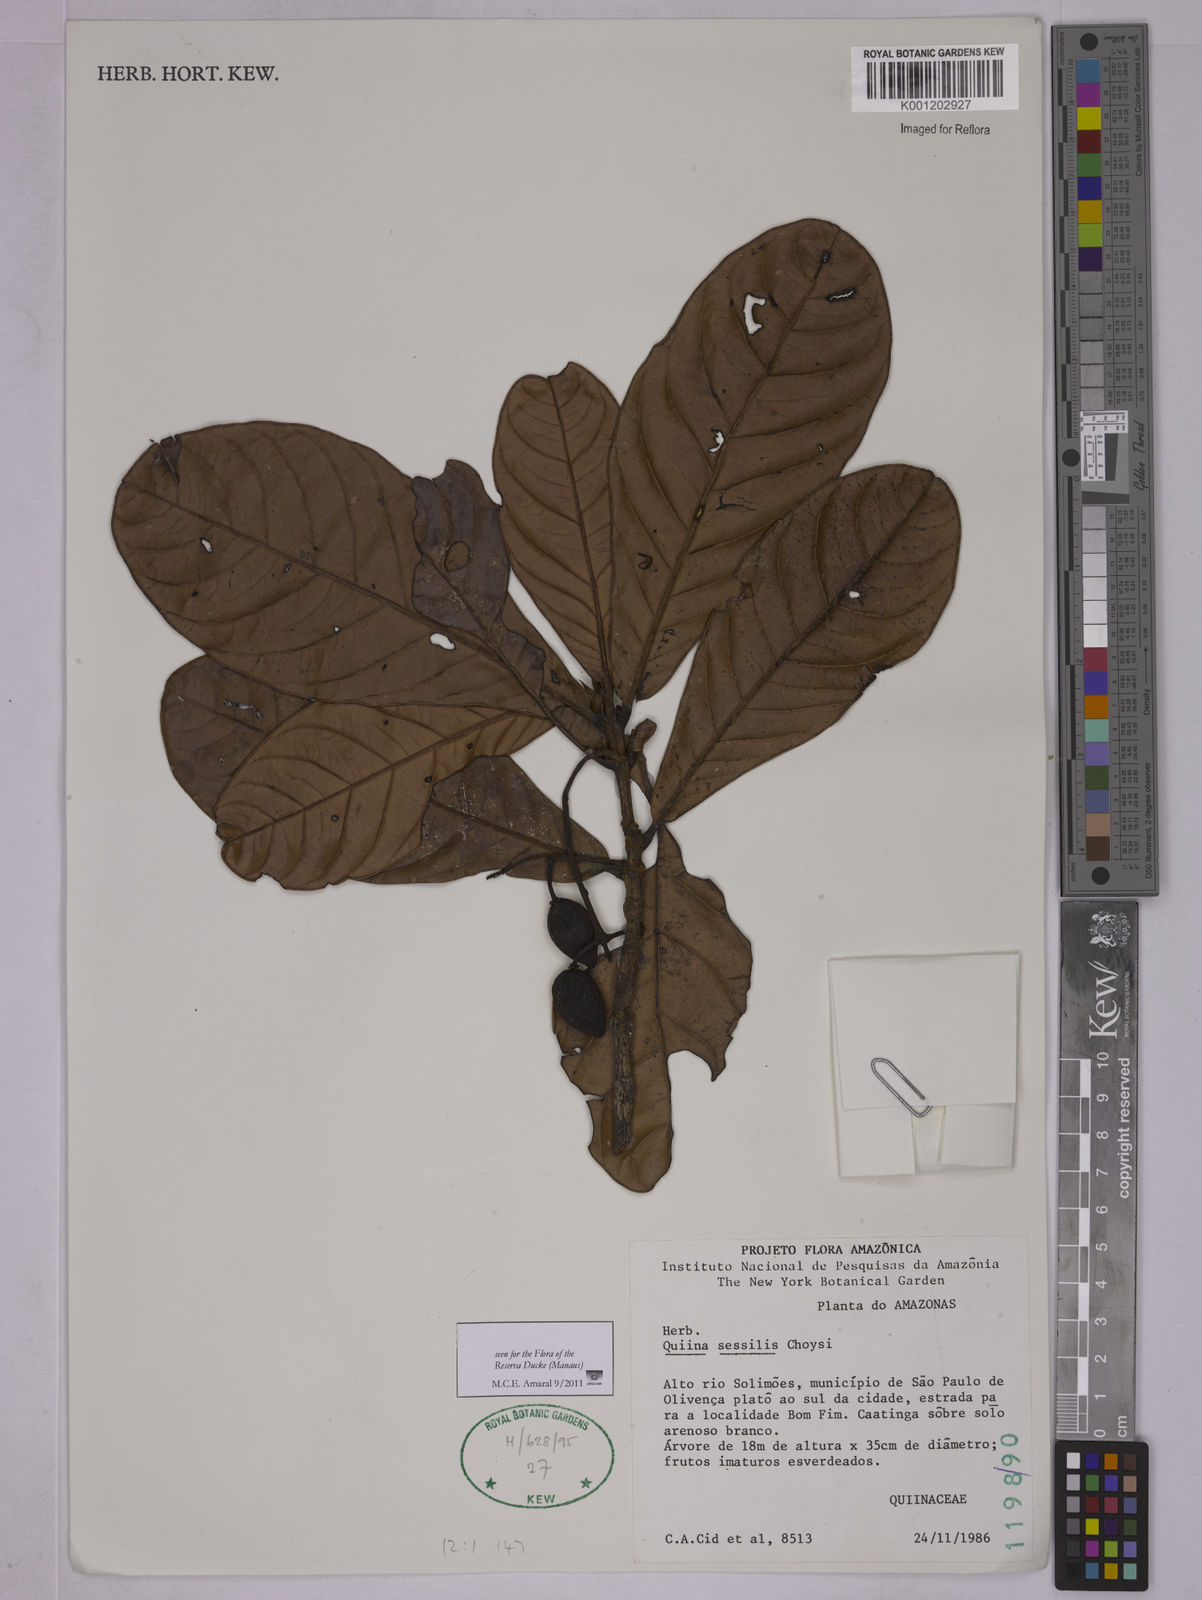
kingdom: Plantae
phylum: Tracheophyta
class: Magnoliopsida
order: Malpighiales
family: Quiinaceae
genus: Quiina
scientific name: Quiina sessilis
